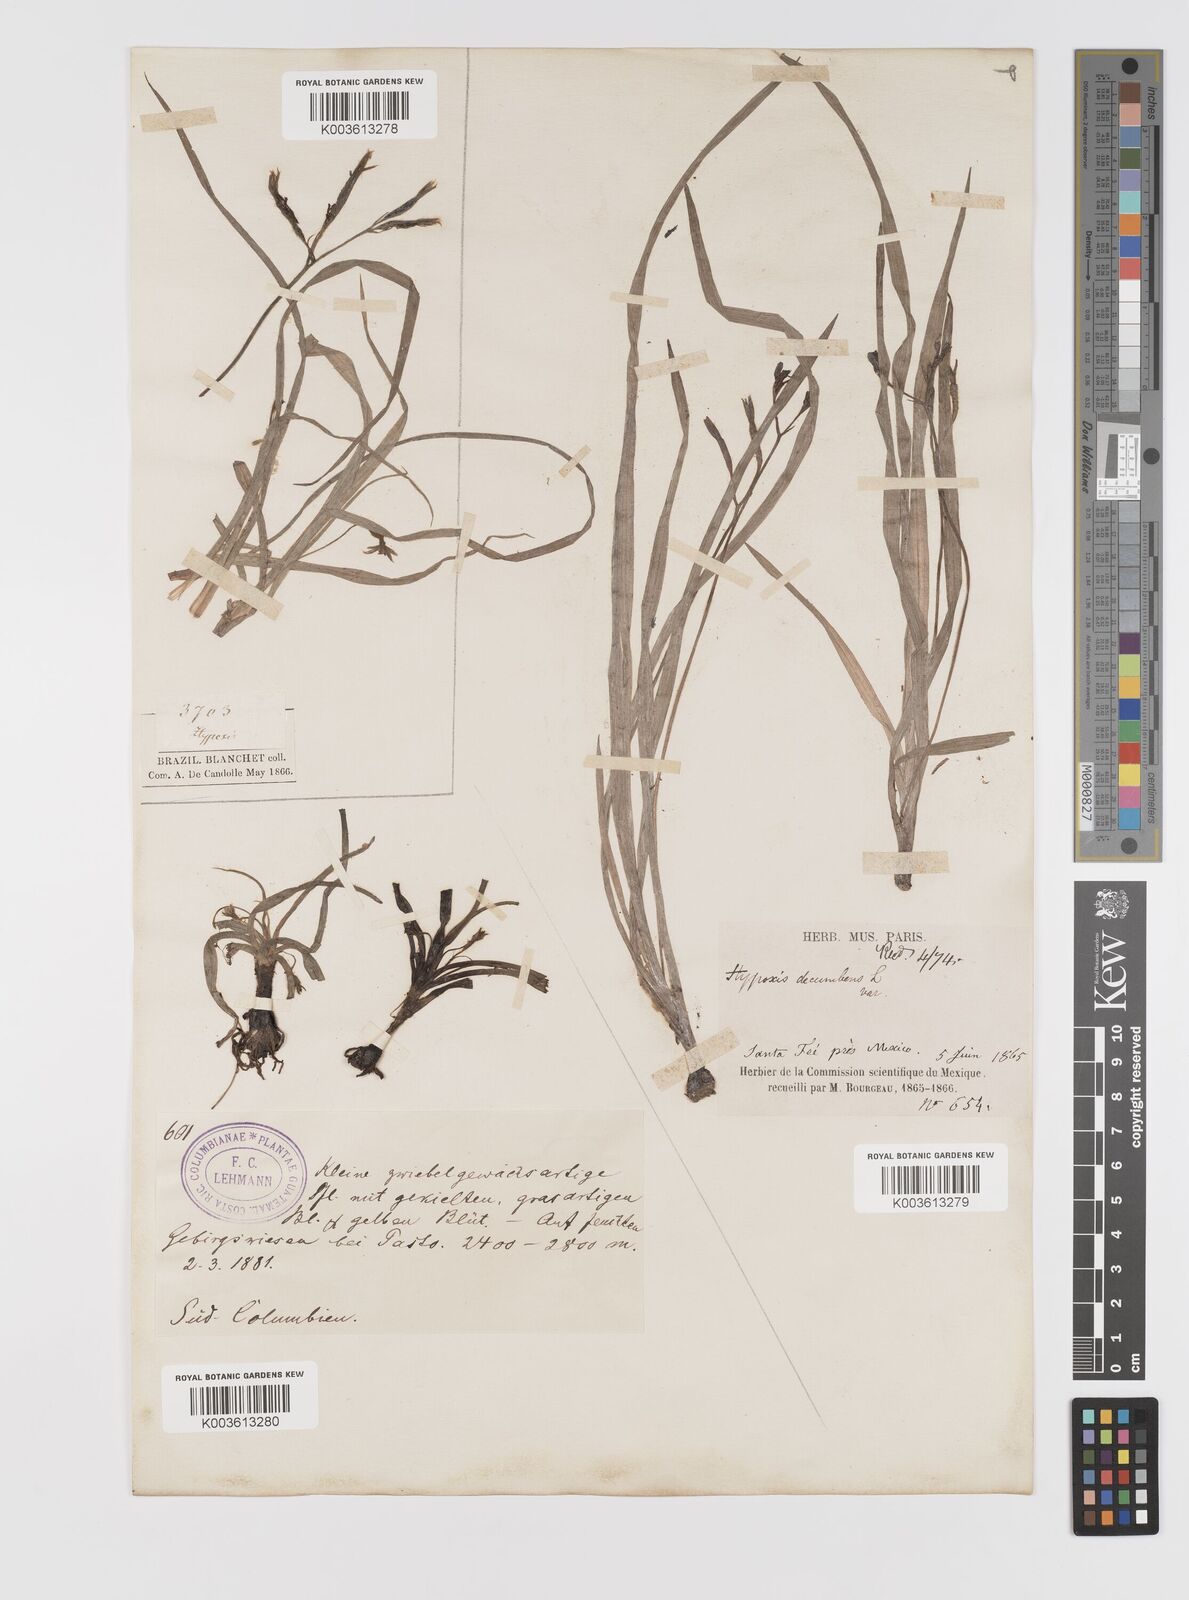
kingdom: Plantae
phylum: Tracheophyta
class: Liliopsida
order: Asparagales
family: Hypoxidaceae
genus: Hypoxis
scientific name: Hypoxis decumbens
